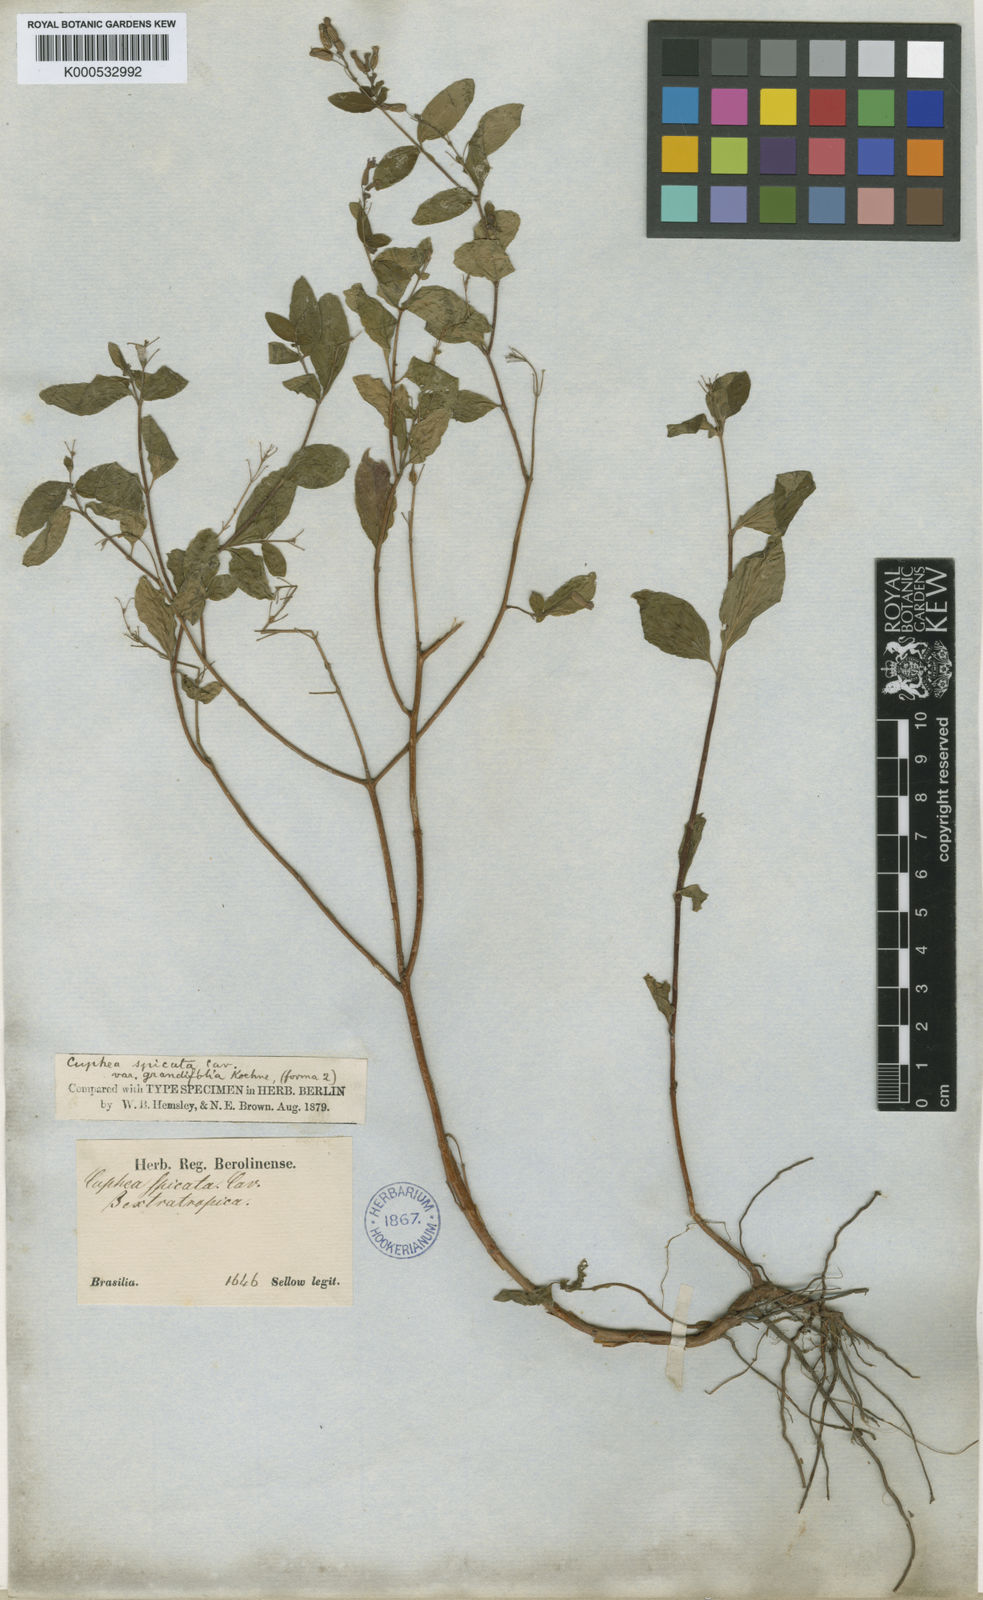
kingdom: Plantae
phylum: Tracheophyta
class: Magnoliopsida
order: Myrtales
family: Lythraceae
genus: Cuphea
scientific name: Cuphea racemosa
